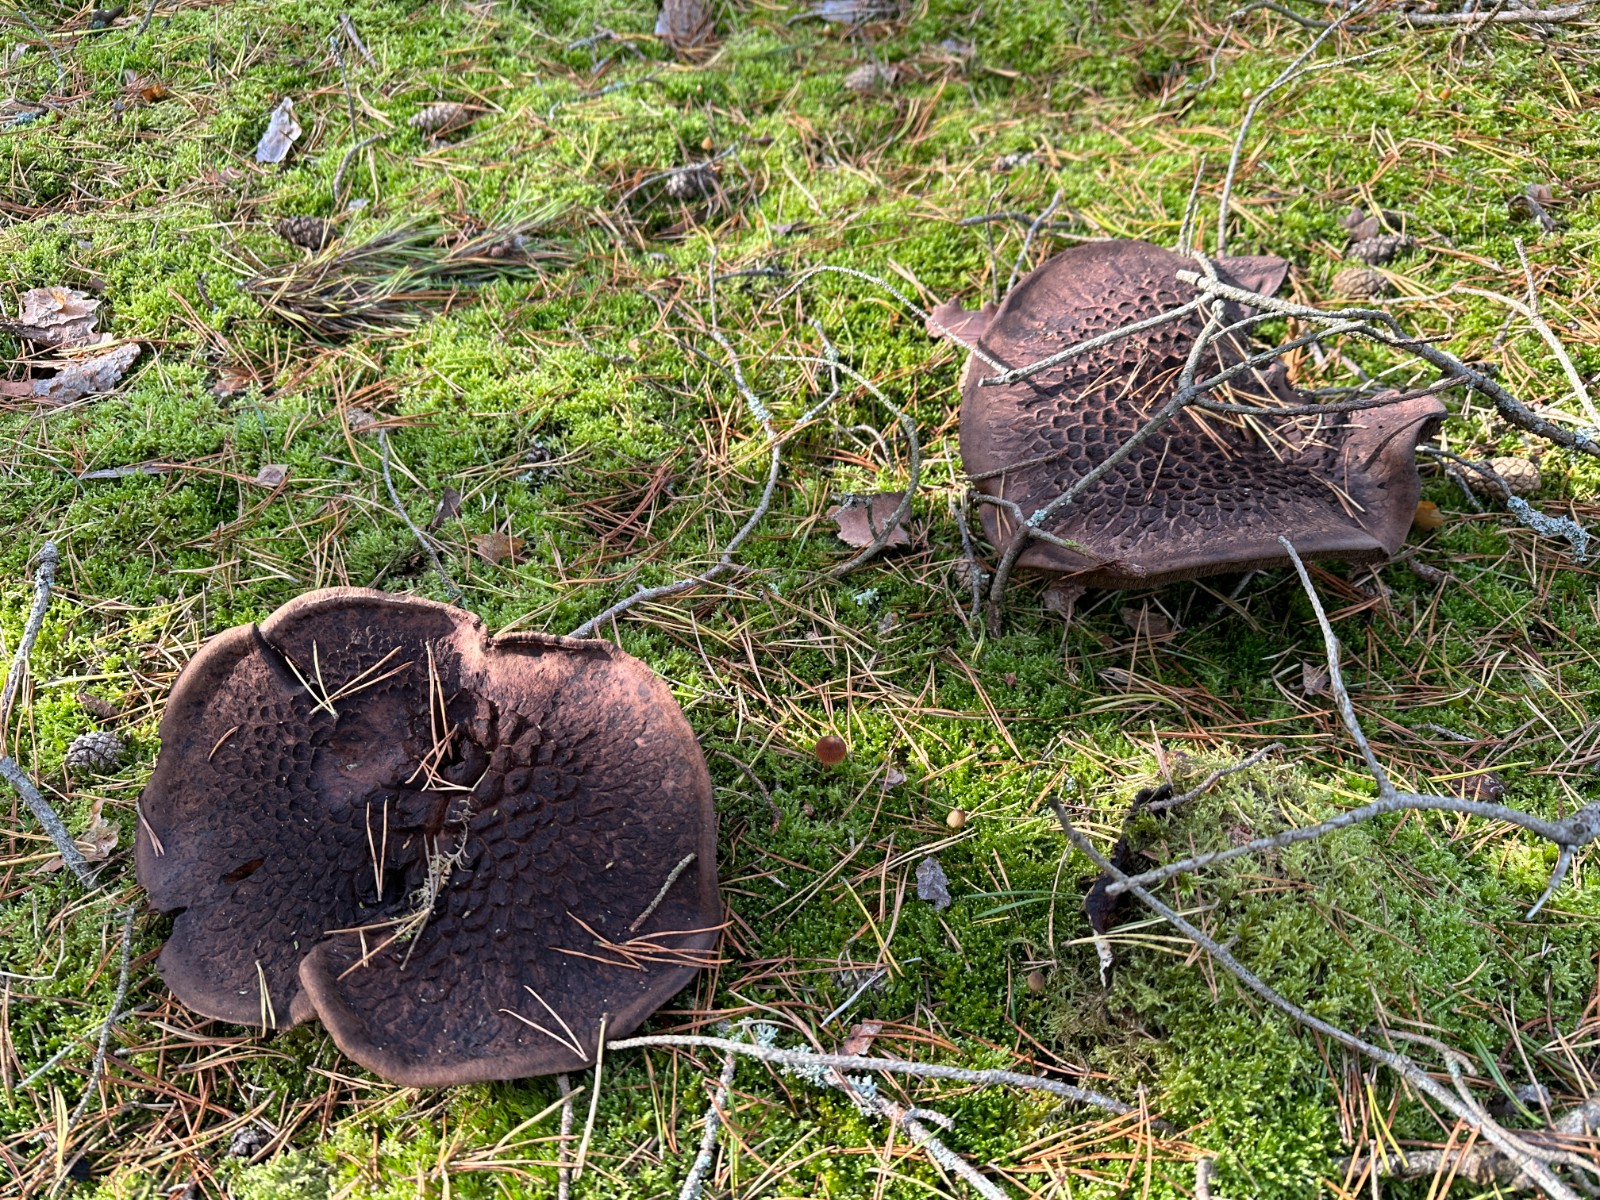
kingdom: Fungi
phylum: Basidiomycota
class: Agaricomycetes
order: Thelephorales
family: Bankeraceae
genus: Sarcodon
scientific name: Sarcodon squamosus
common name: småskællet kødpigsvamp
